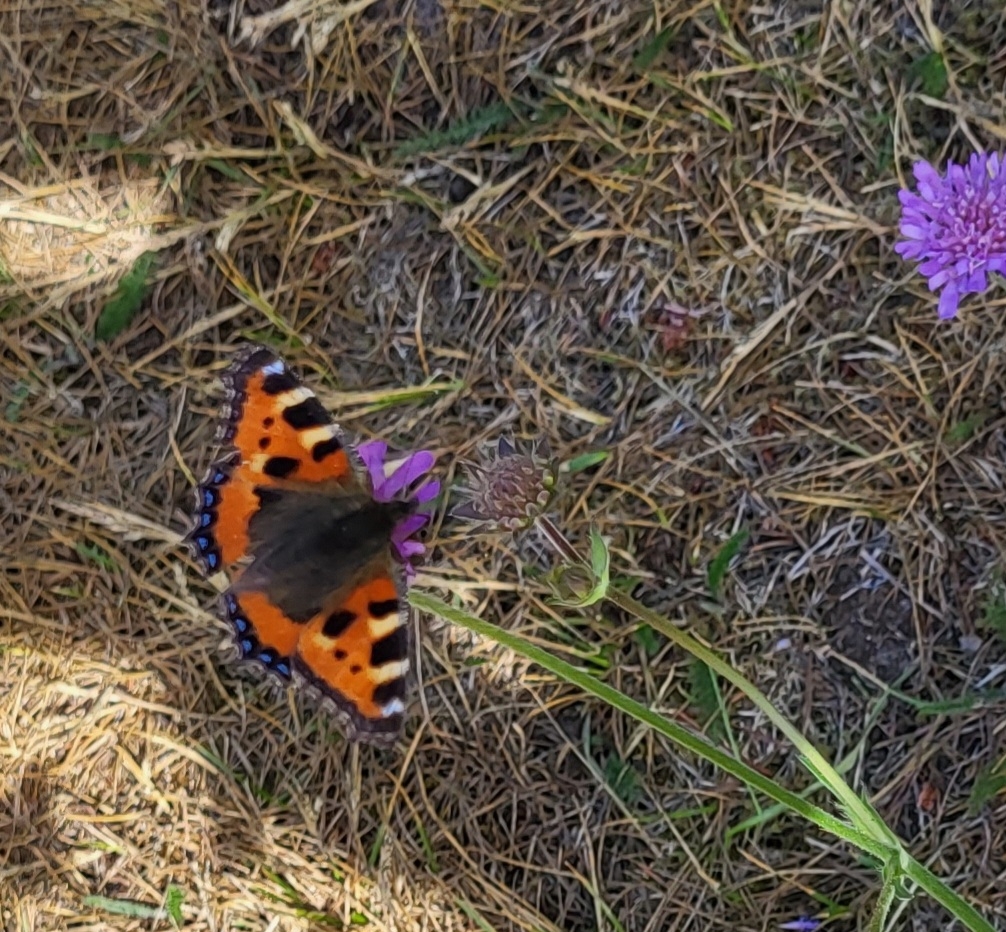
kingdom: Animalia
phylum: Arthropoda
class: Insecta
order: Lepidoptera
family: Nymphalidae
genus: Aglais
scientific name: Aglais urticae
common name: Nældens takvinge
